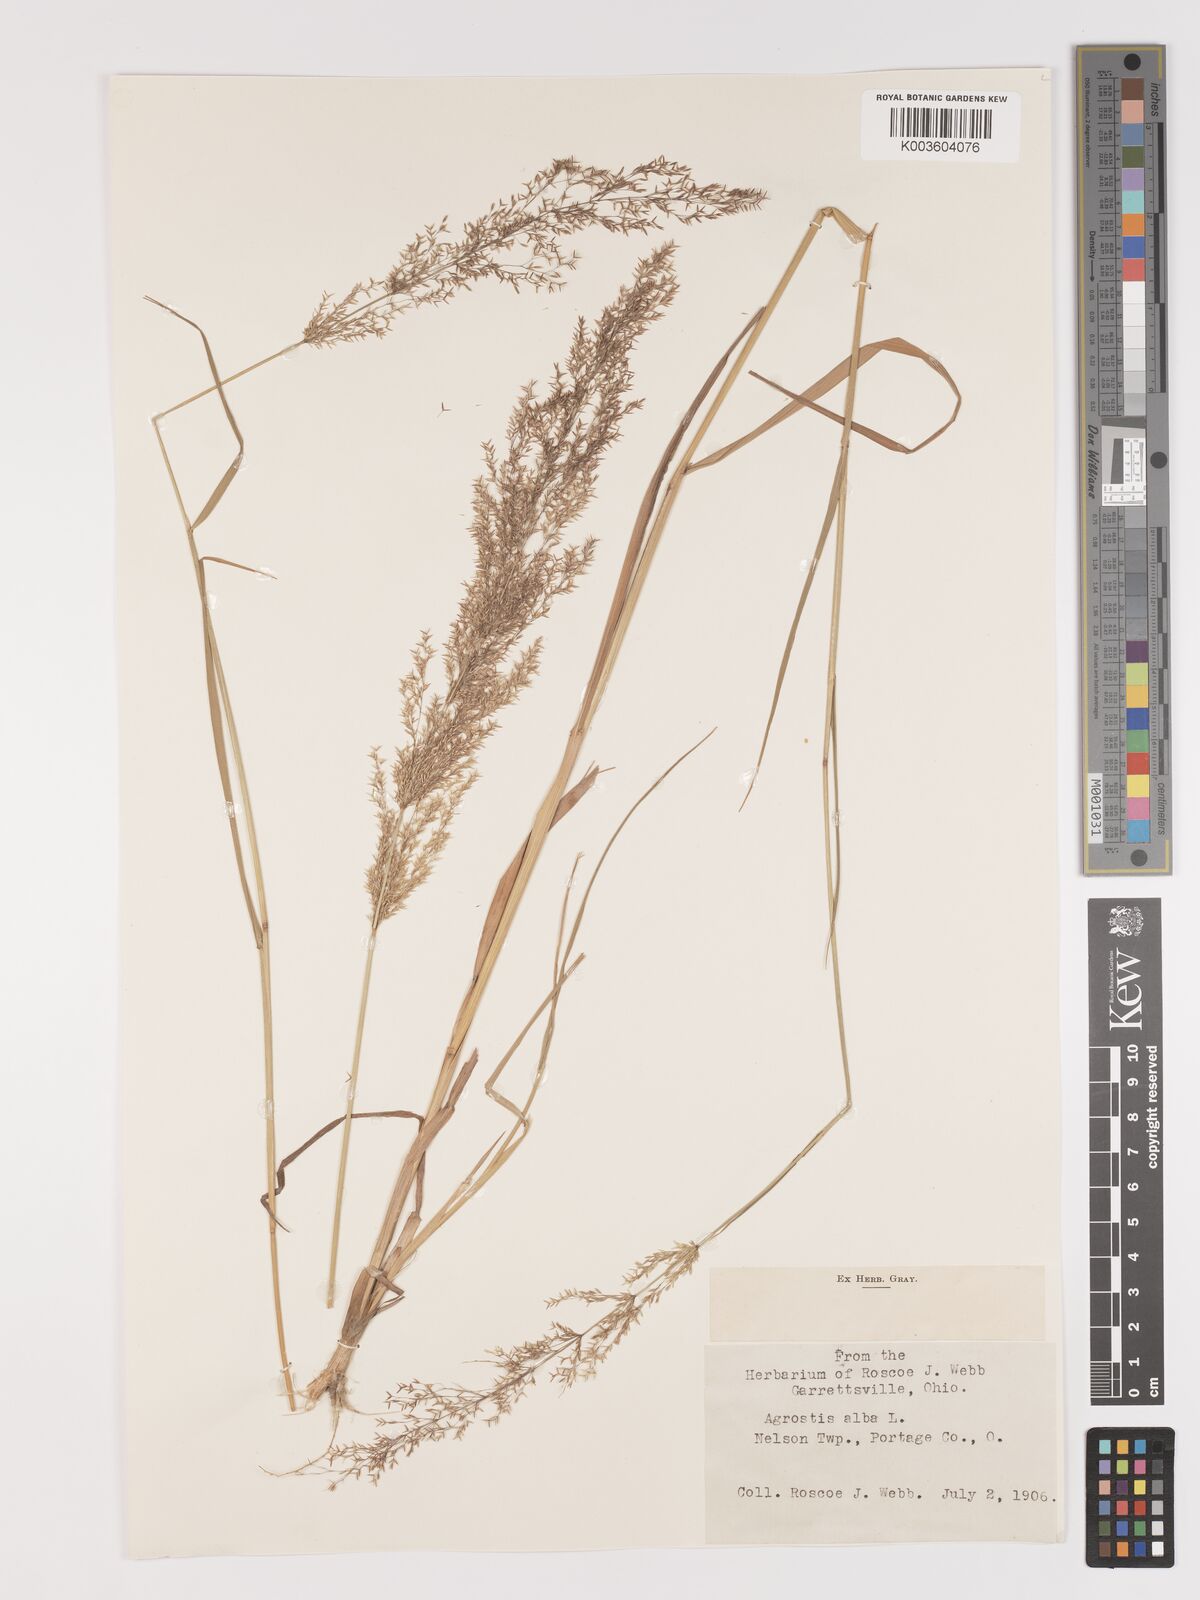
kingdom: Plantae
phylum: Tracheophyta
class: Liliopsida
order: Poales
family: Poaceae
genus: Agrostis
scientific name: Agrostis gigantea
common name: Black bent
